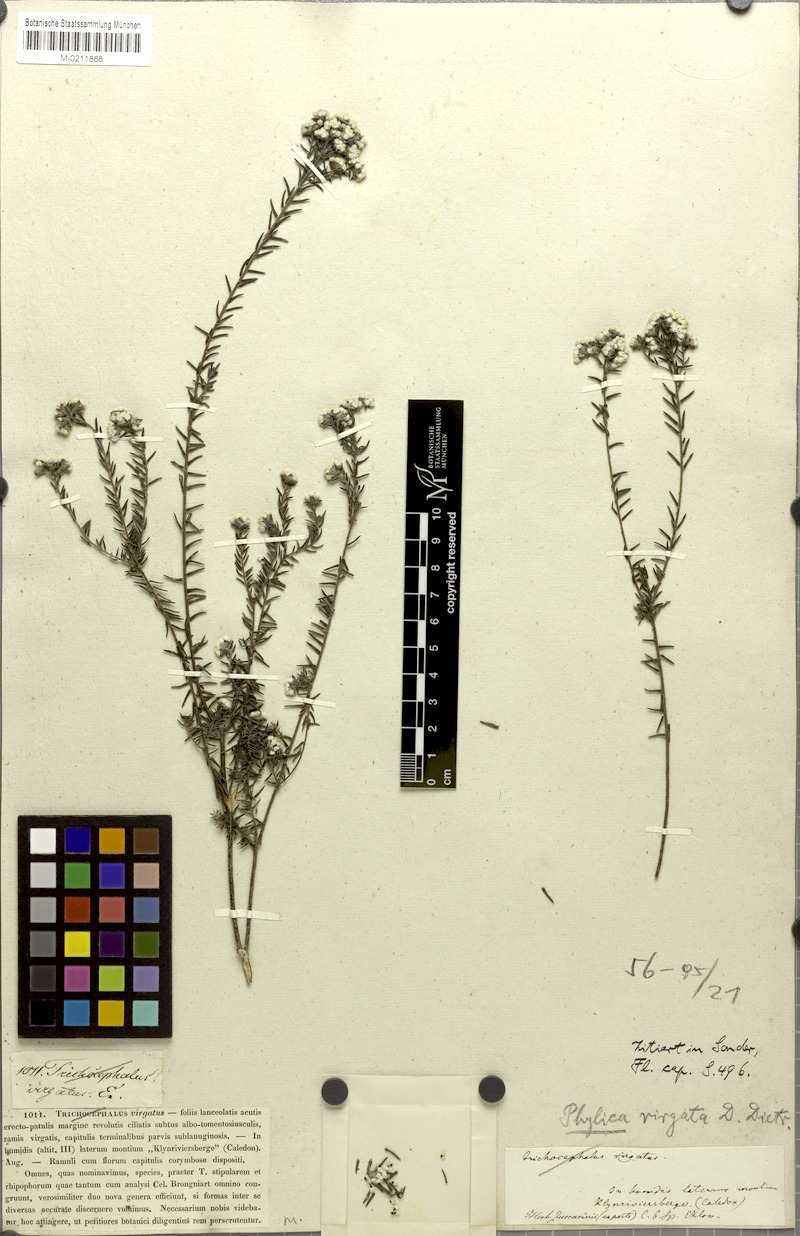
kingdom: Plantae
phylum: Tracheophyta
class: Magnoliopsida
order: Rosales
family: Rhamnaceae
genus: Phylica
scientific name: Phylica virgata
